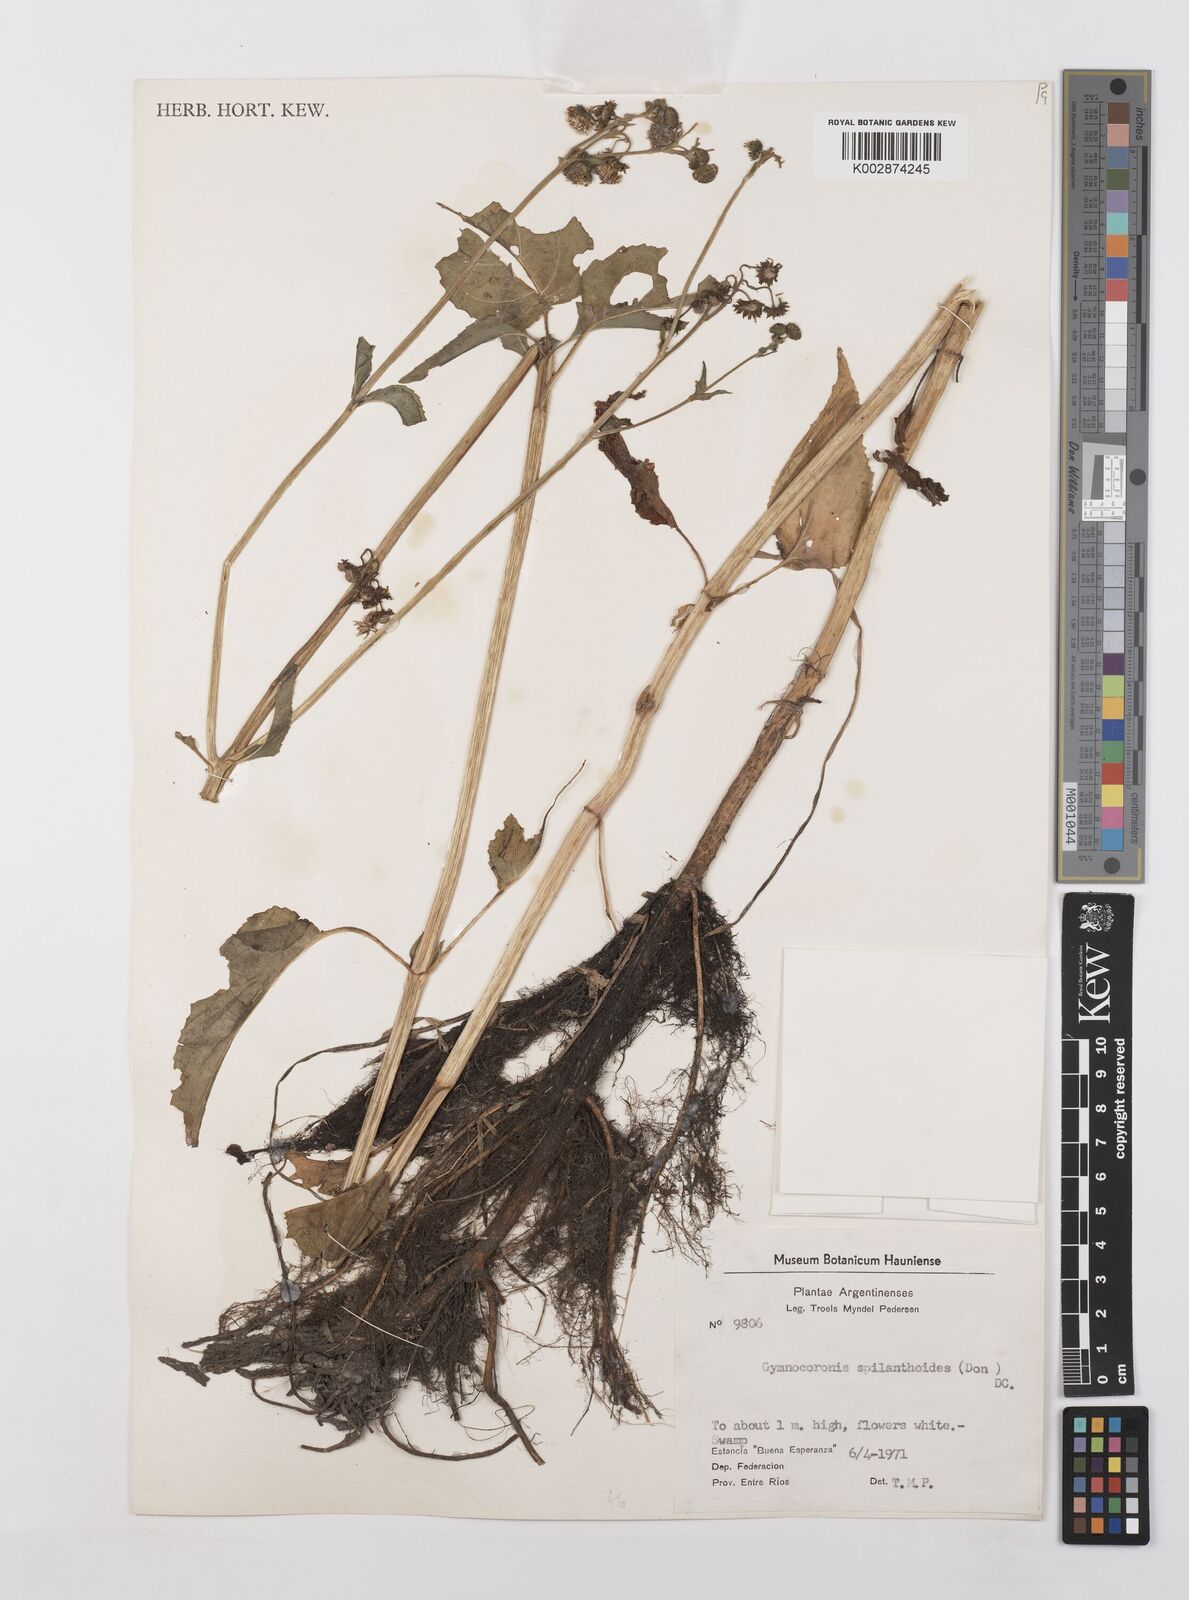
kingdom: Plantae
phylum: Tracheophyta
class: Magnoliopsida
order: Asterales
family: Asteraceae
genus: Gymnocoronis
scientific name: Gymnocoronis spilanthoides
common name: Senegal teaplant
